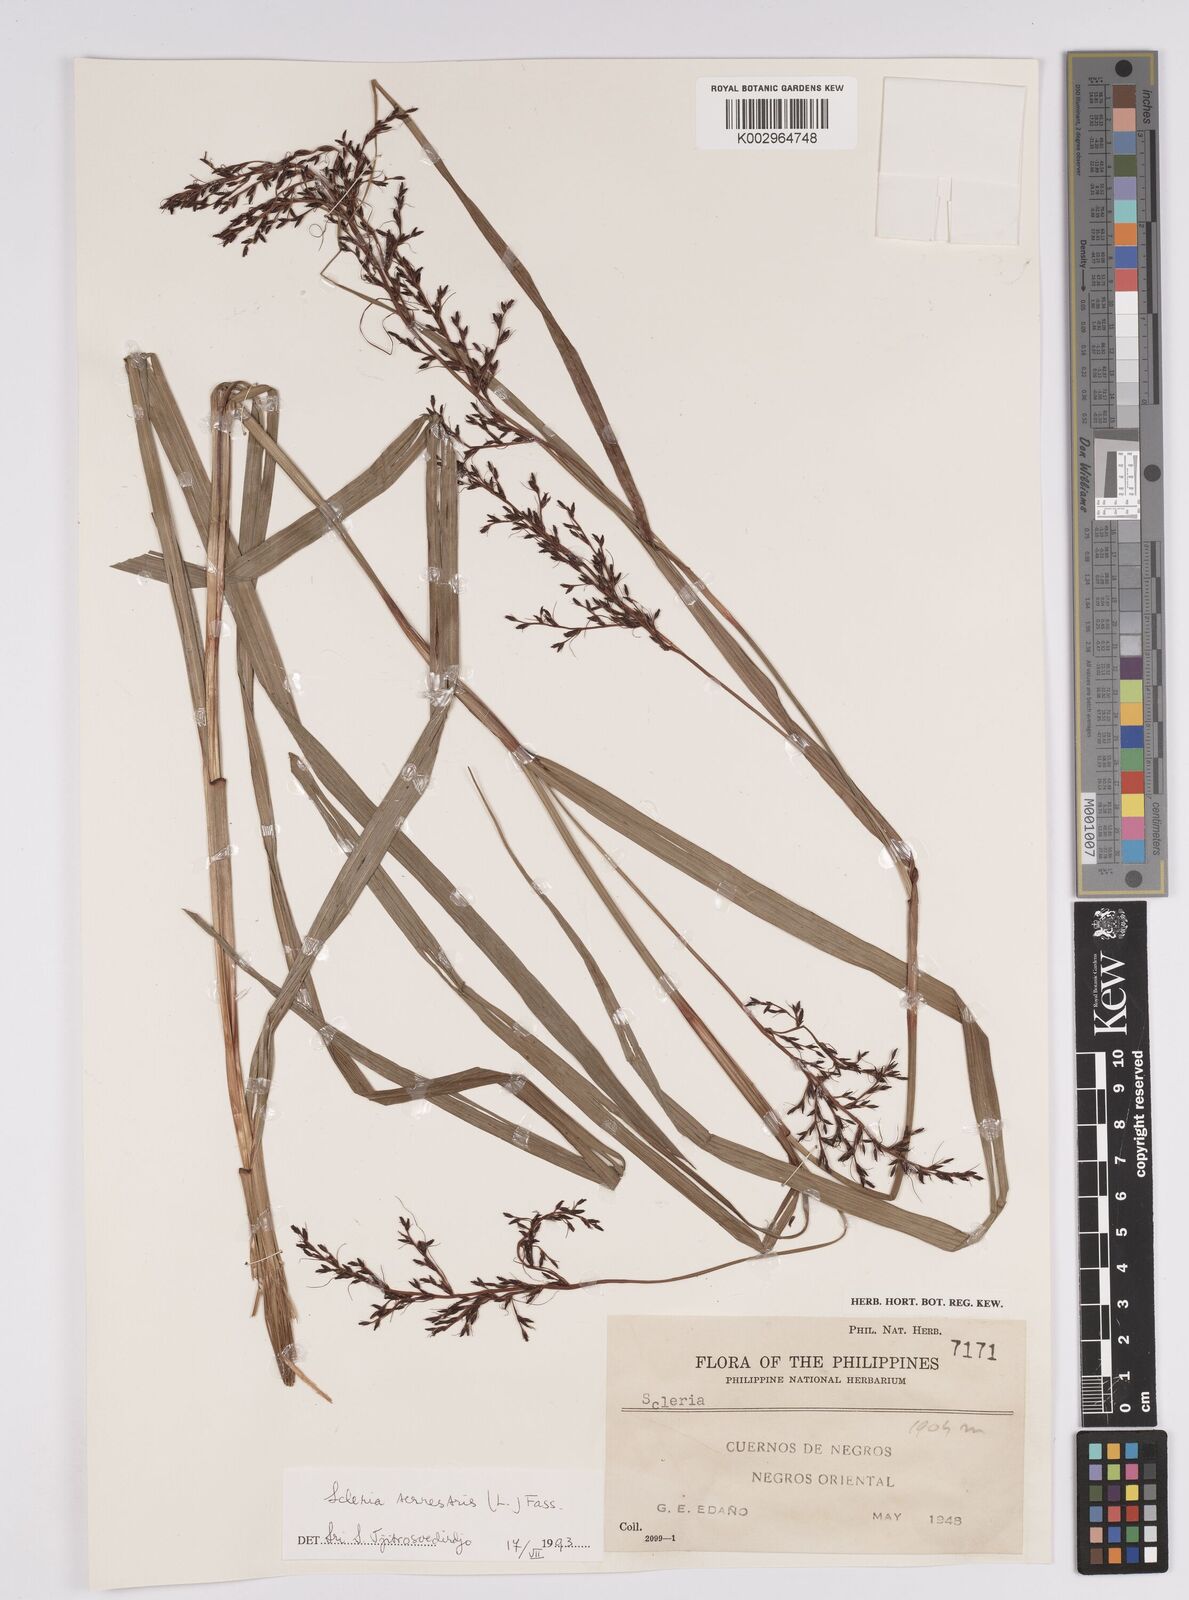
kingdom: Plantae
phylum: Tracheophyta
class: Liliopsida
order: Poales
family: Cyperaceae
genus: Scleria
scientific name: Scleria terrestris
